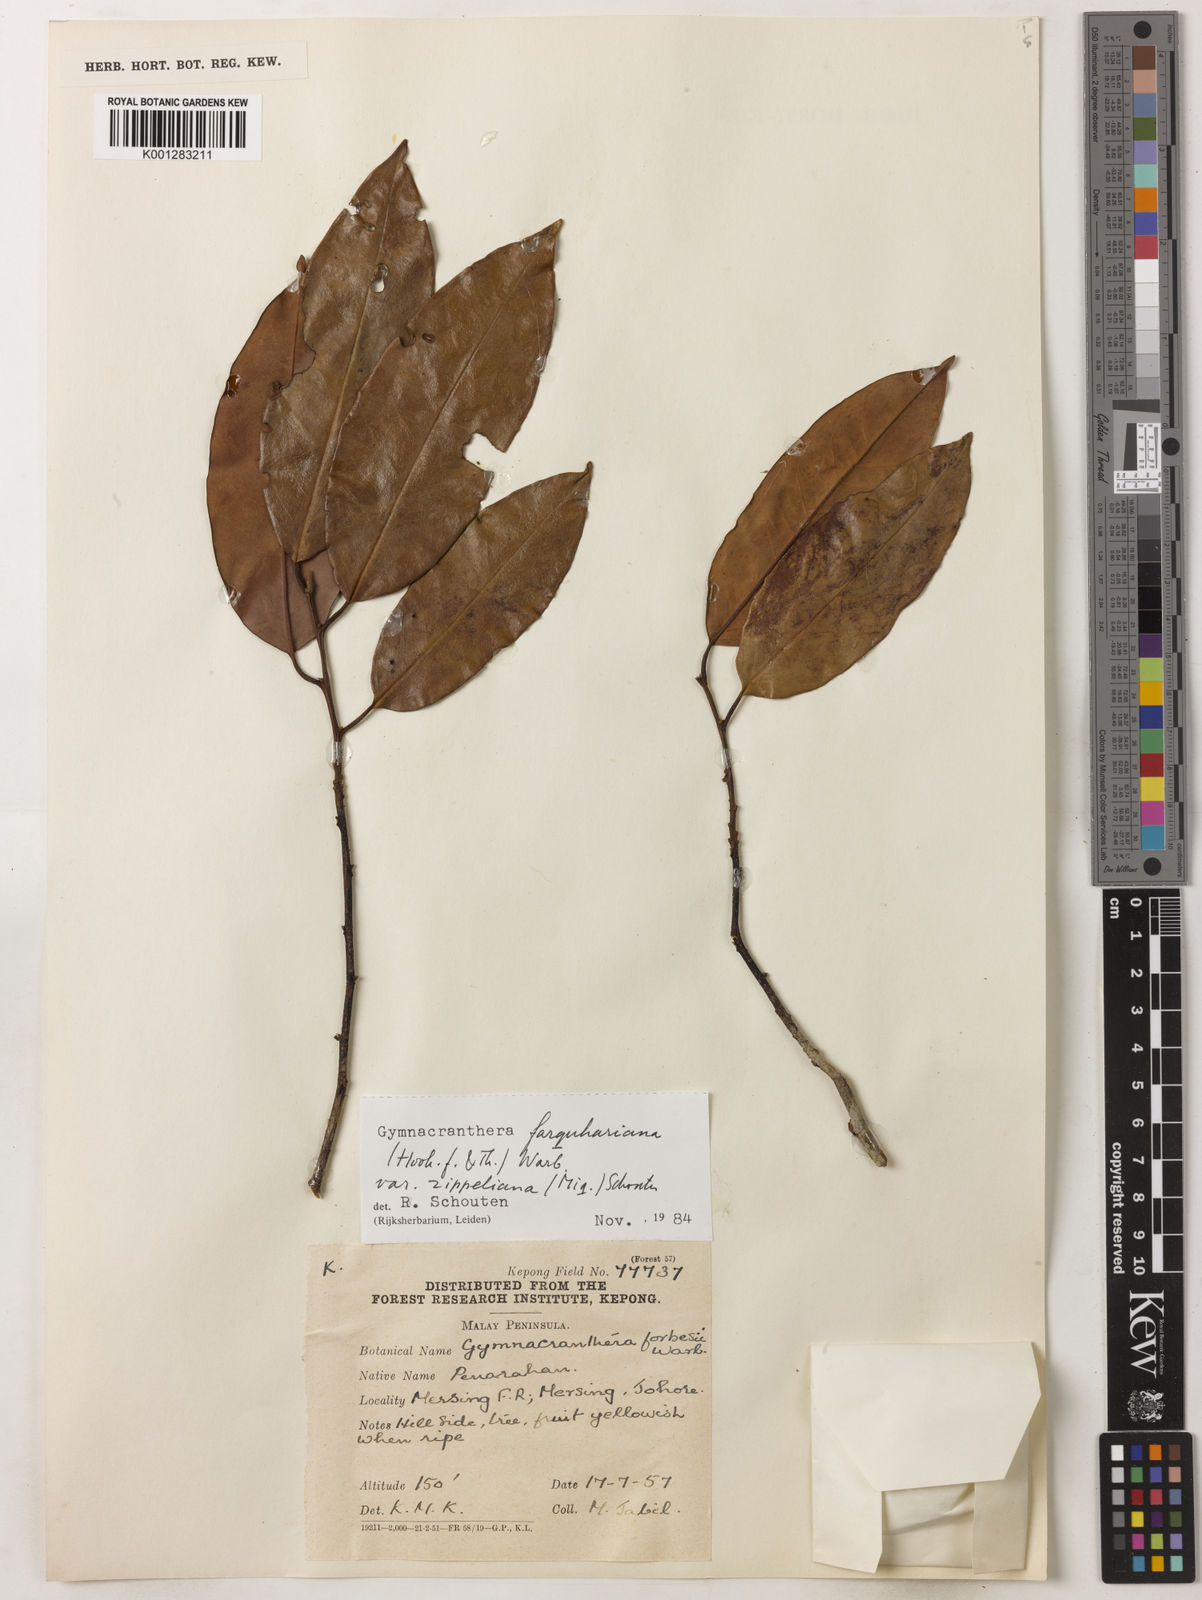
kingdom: Plantae
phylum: Tracheophyta
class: Magnoliopsida
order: Magnoliales
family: Myristicaceae
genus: Gymnacranthera
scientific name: Gymnacranthera farquhariana
